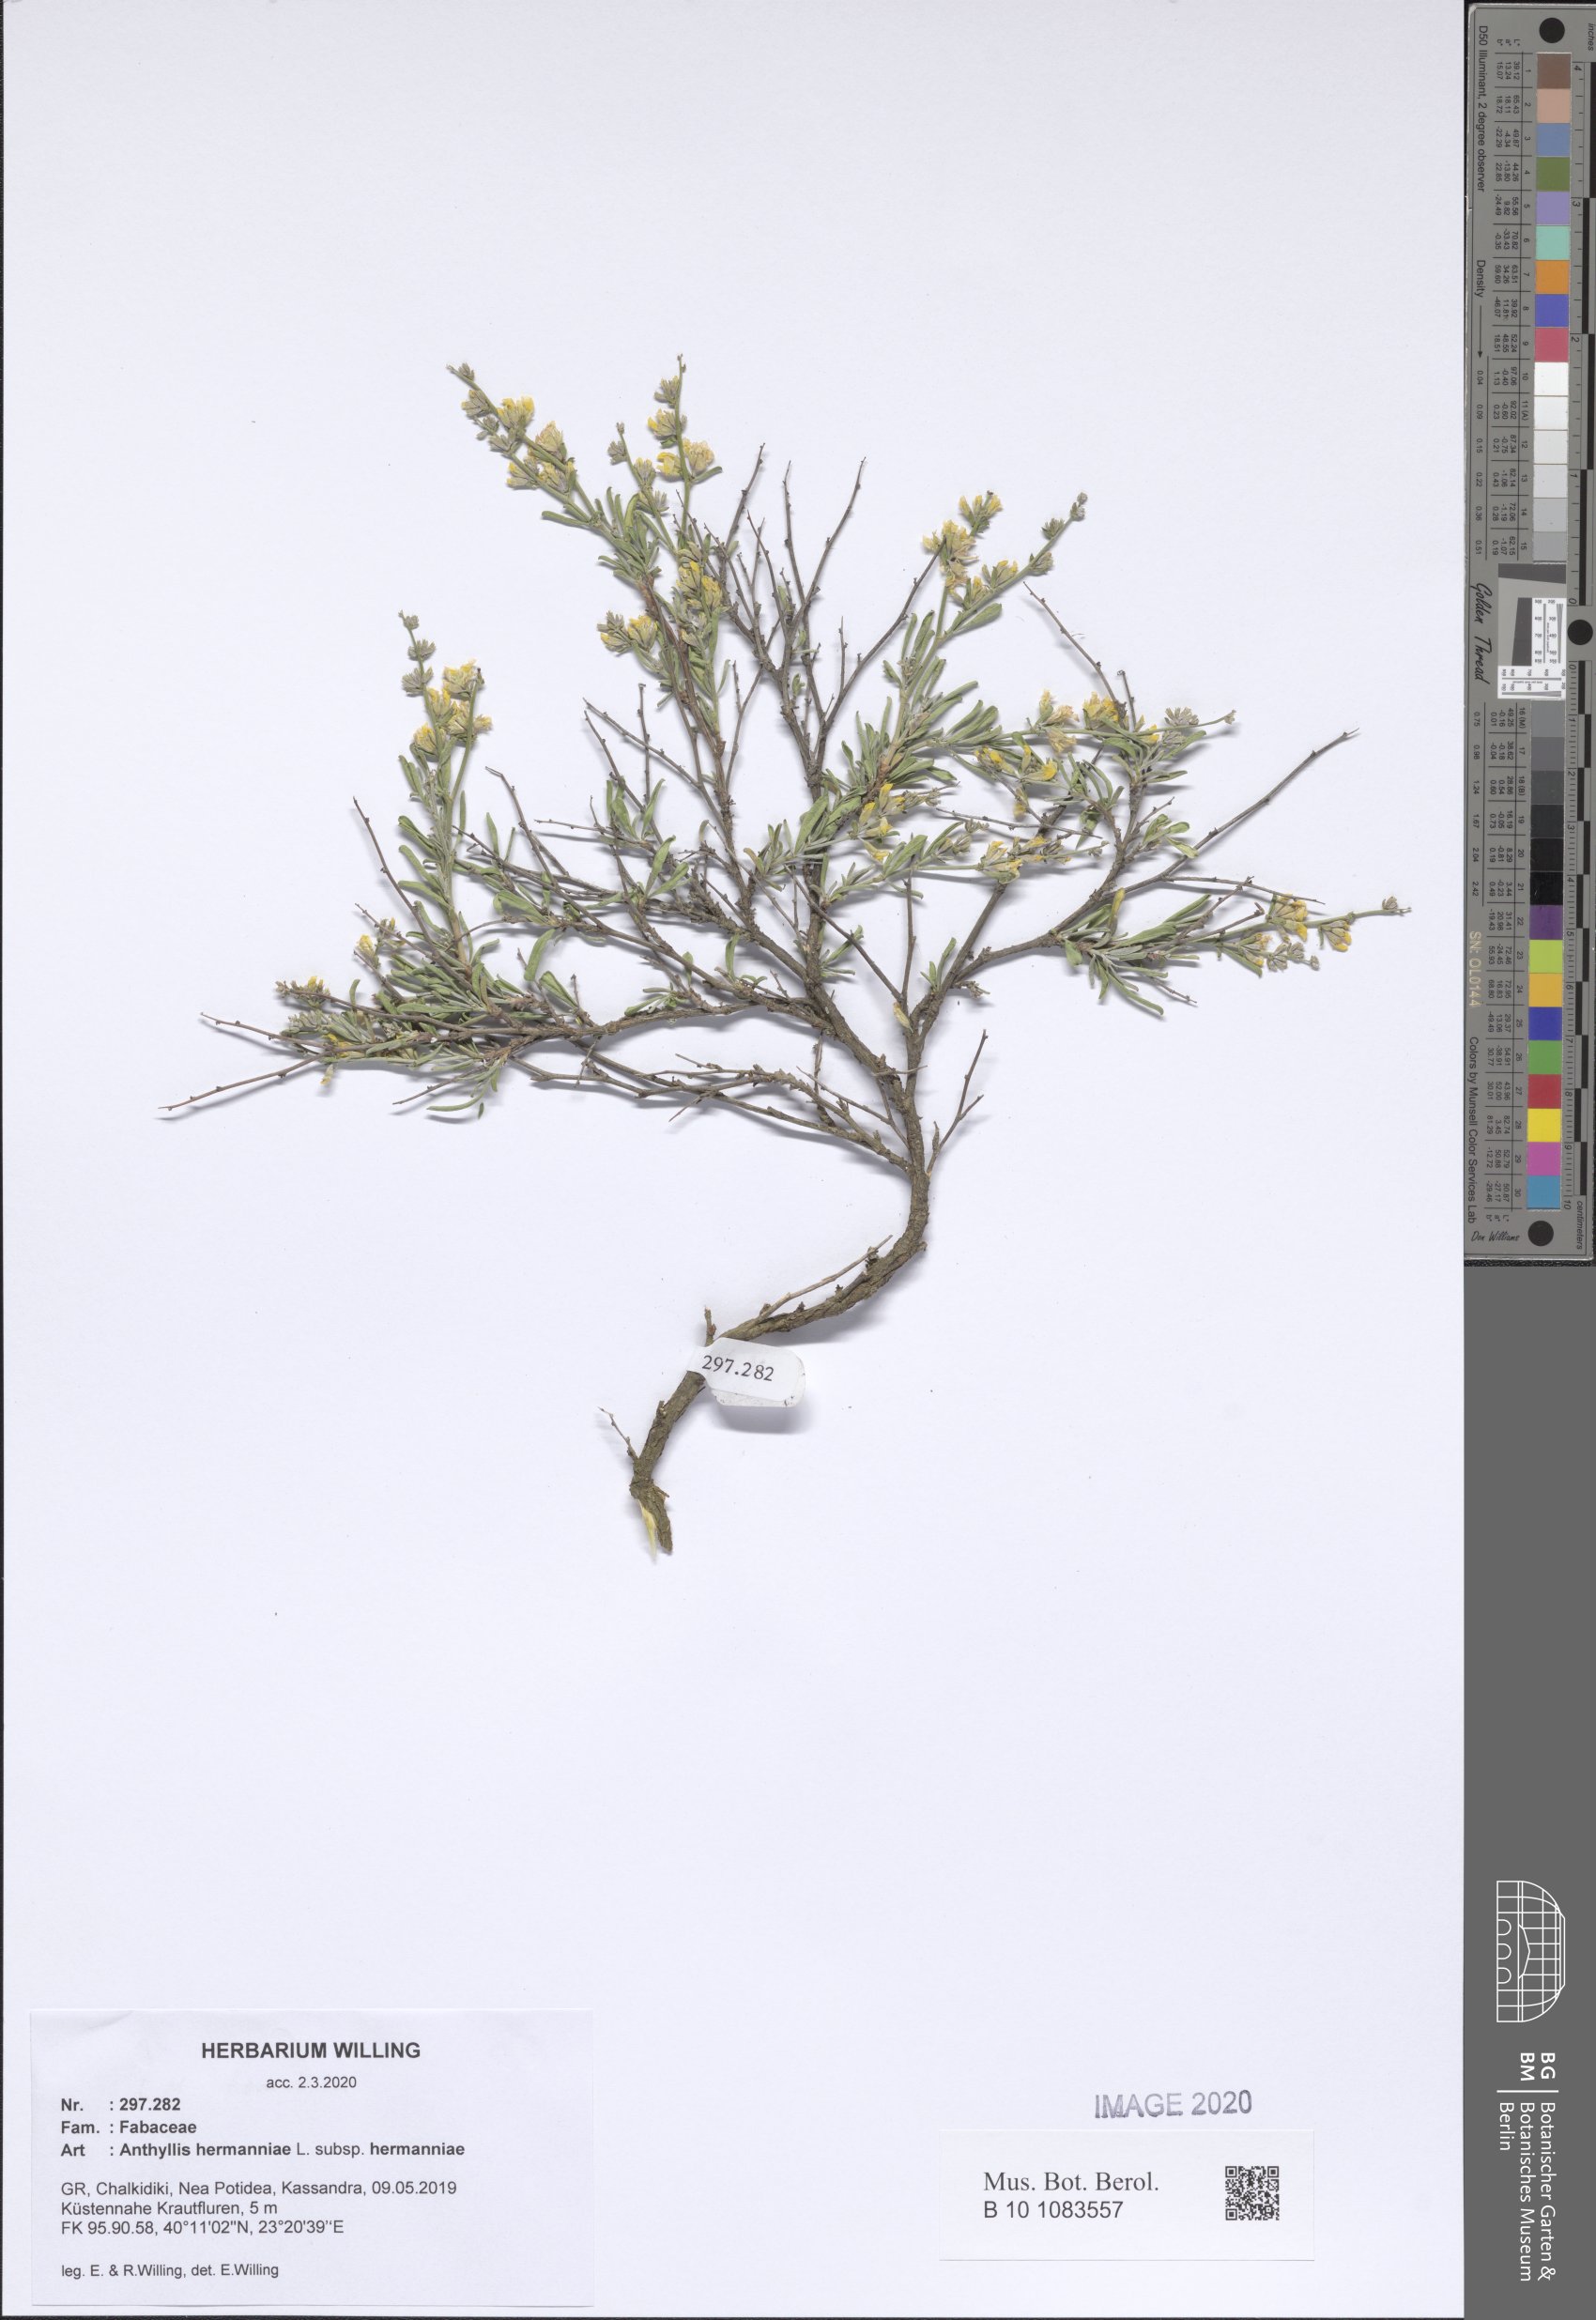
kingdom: Plantae
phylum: Tracheophyta
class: Magnoliopsida
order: Fabales
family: Fabaceae
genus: Anthyllis
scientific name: Anthyllis hermanniae
